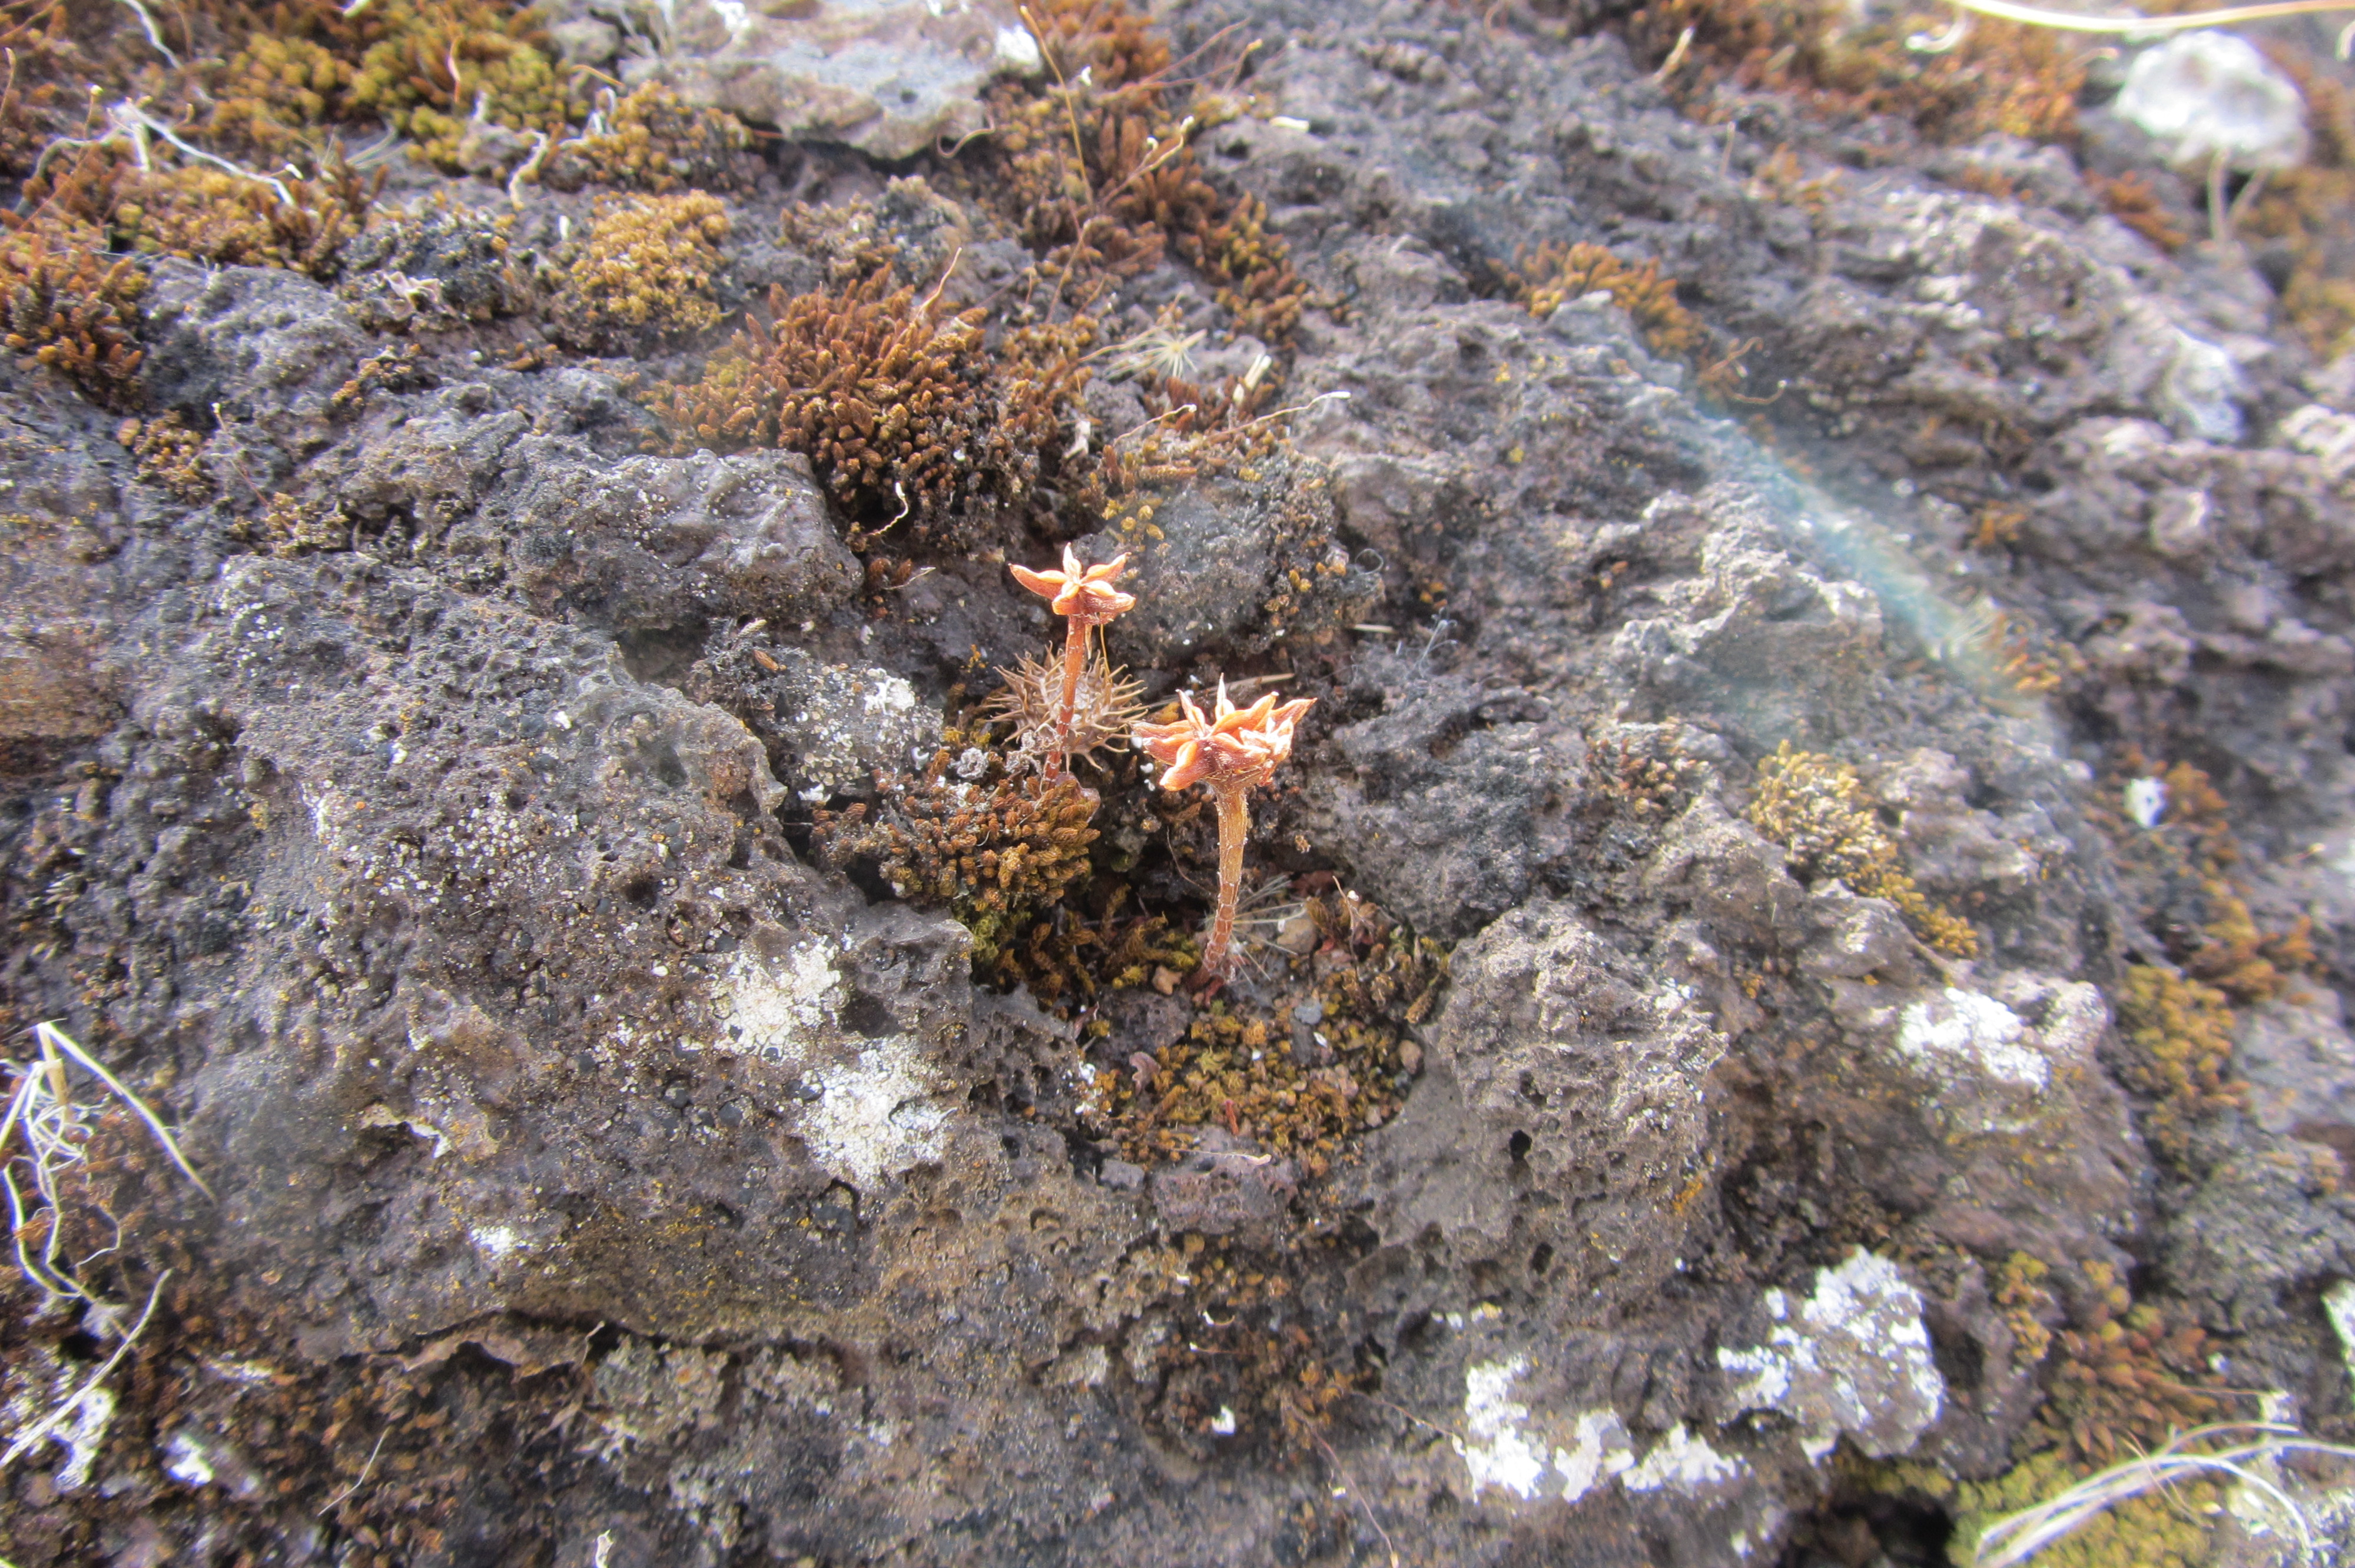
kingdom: Plantae
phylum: Tracheophyta
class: Magnoliopsida
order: Saxifragales
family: Crassulaceae
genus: Phedimus
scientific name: Phedimus stellatus
